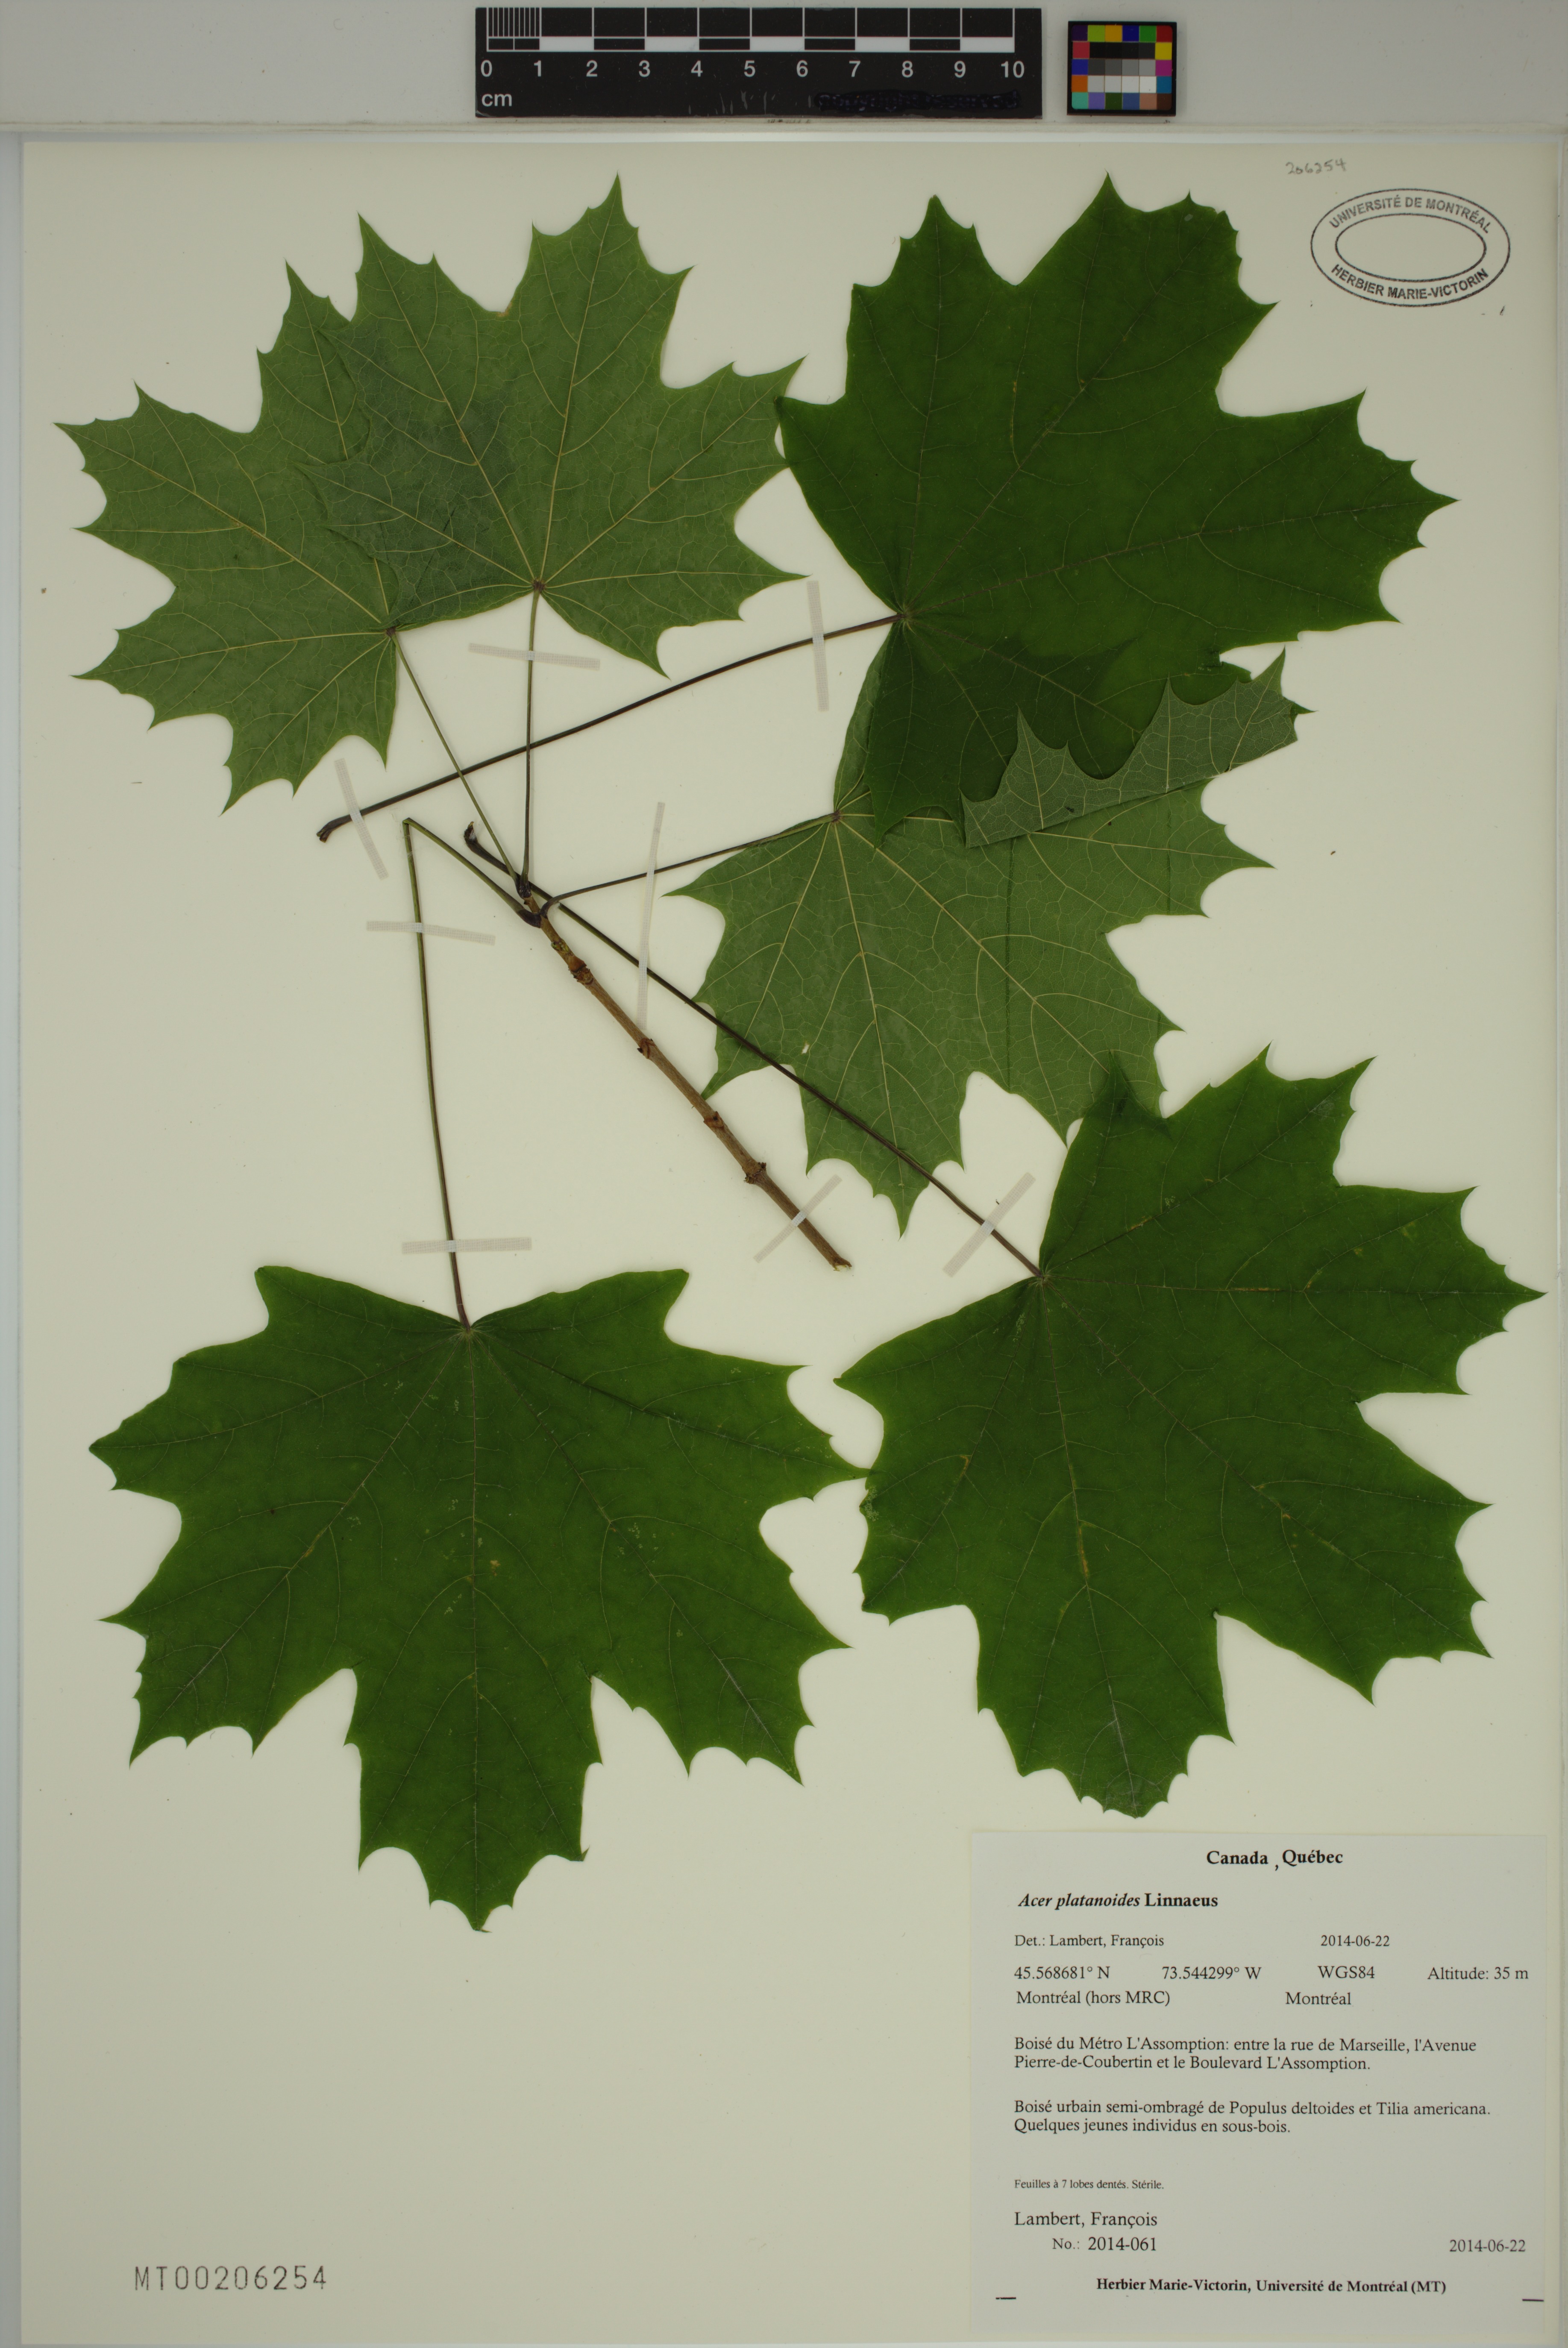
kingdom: Plantae
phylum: Tracheophyta
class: Magnoliopsida
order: Sapindales
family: Sapindaceae
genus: Acer
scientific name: Acer platanoides
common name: Norway maple
